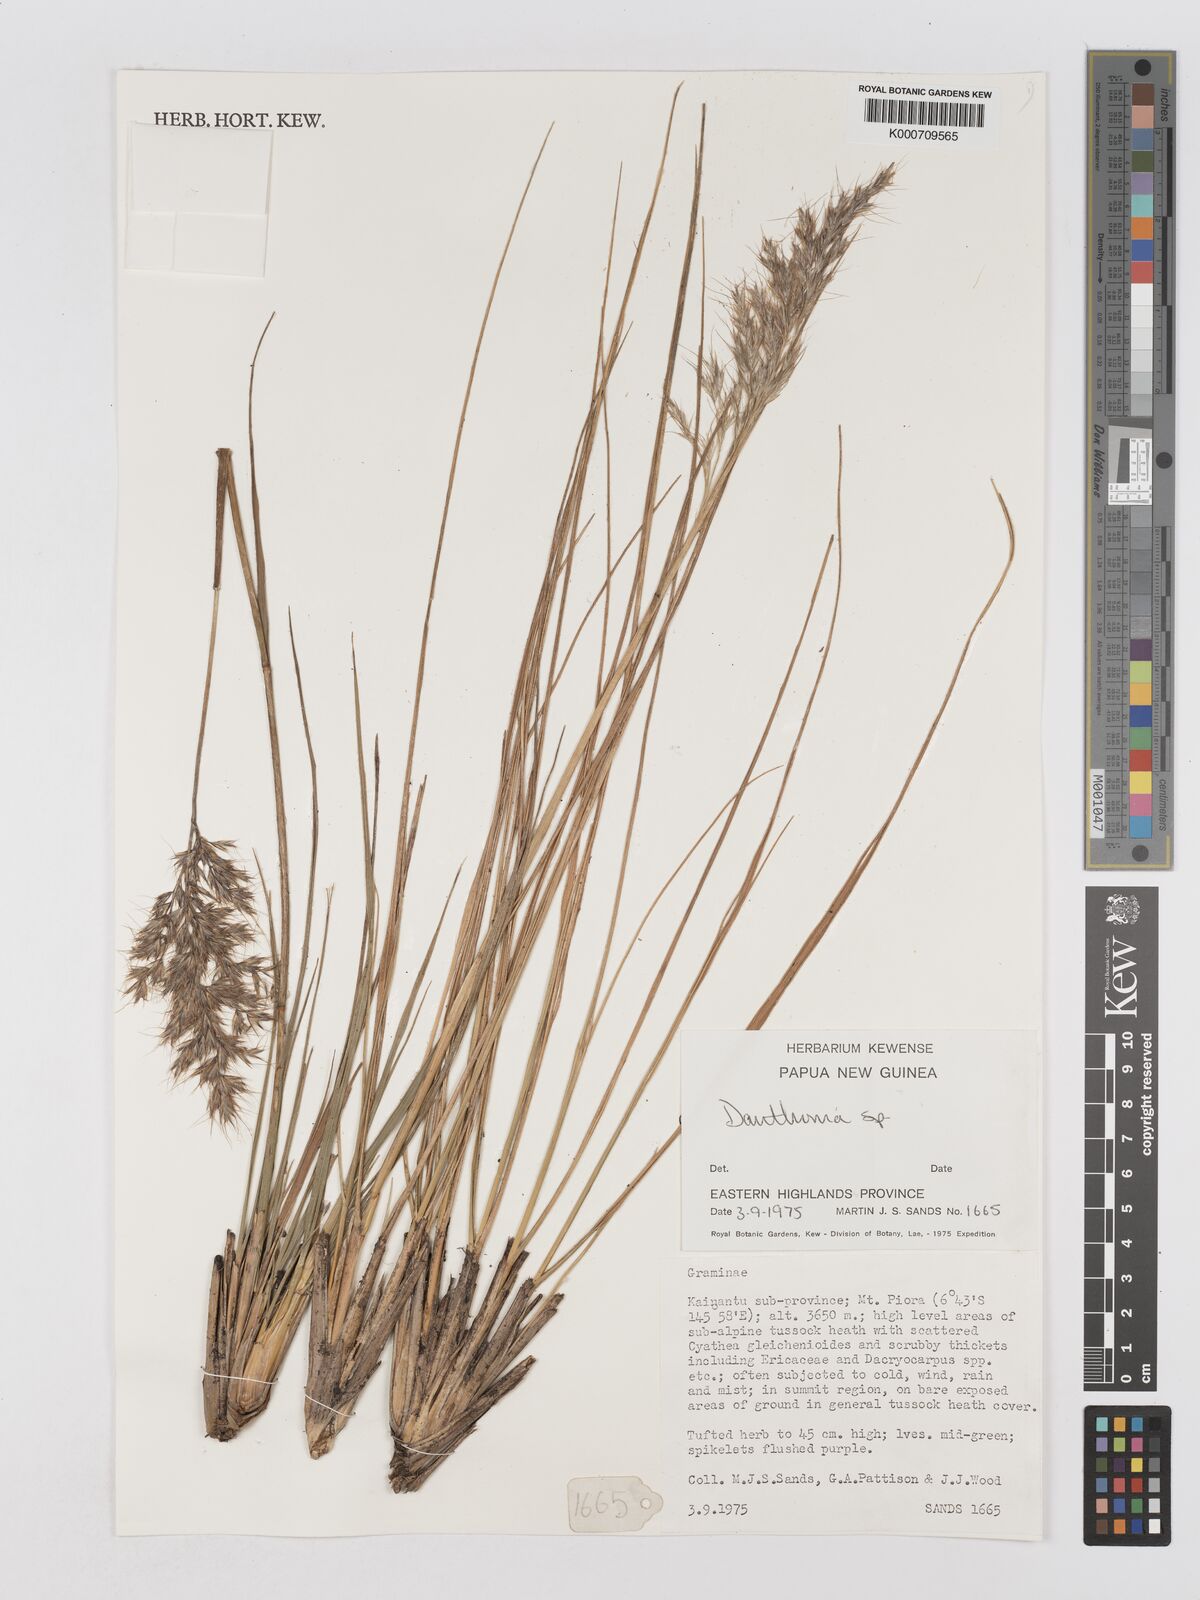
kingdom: Plantae
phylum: Tracheophyta
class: Liliopsida
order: Poales
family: Poaceae
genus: Chimaerochloa
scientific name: Chimaerochloa archboldii
